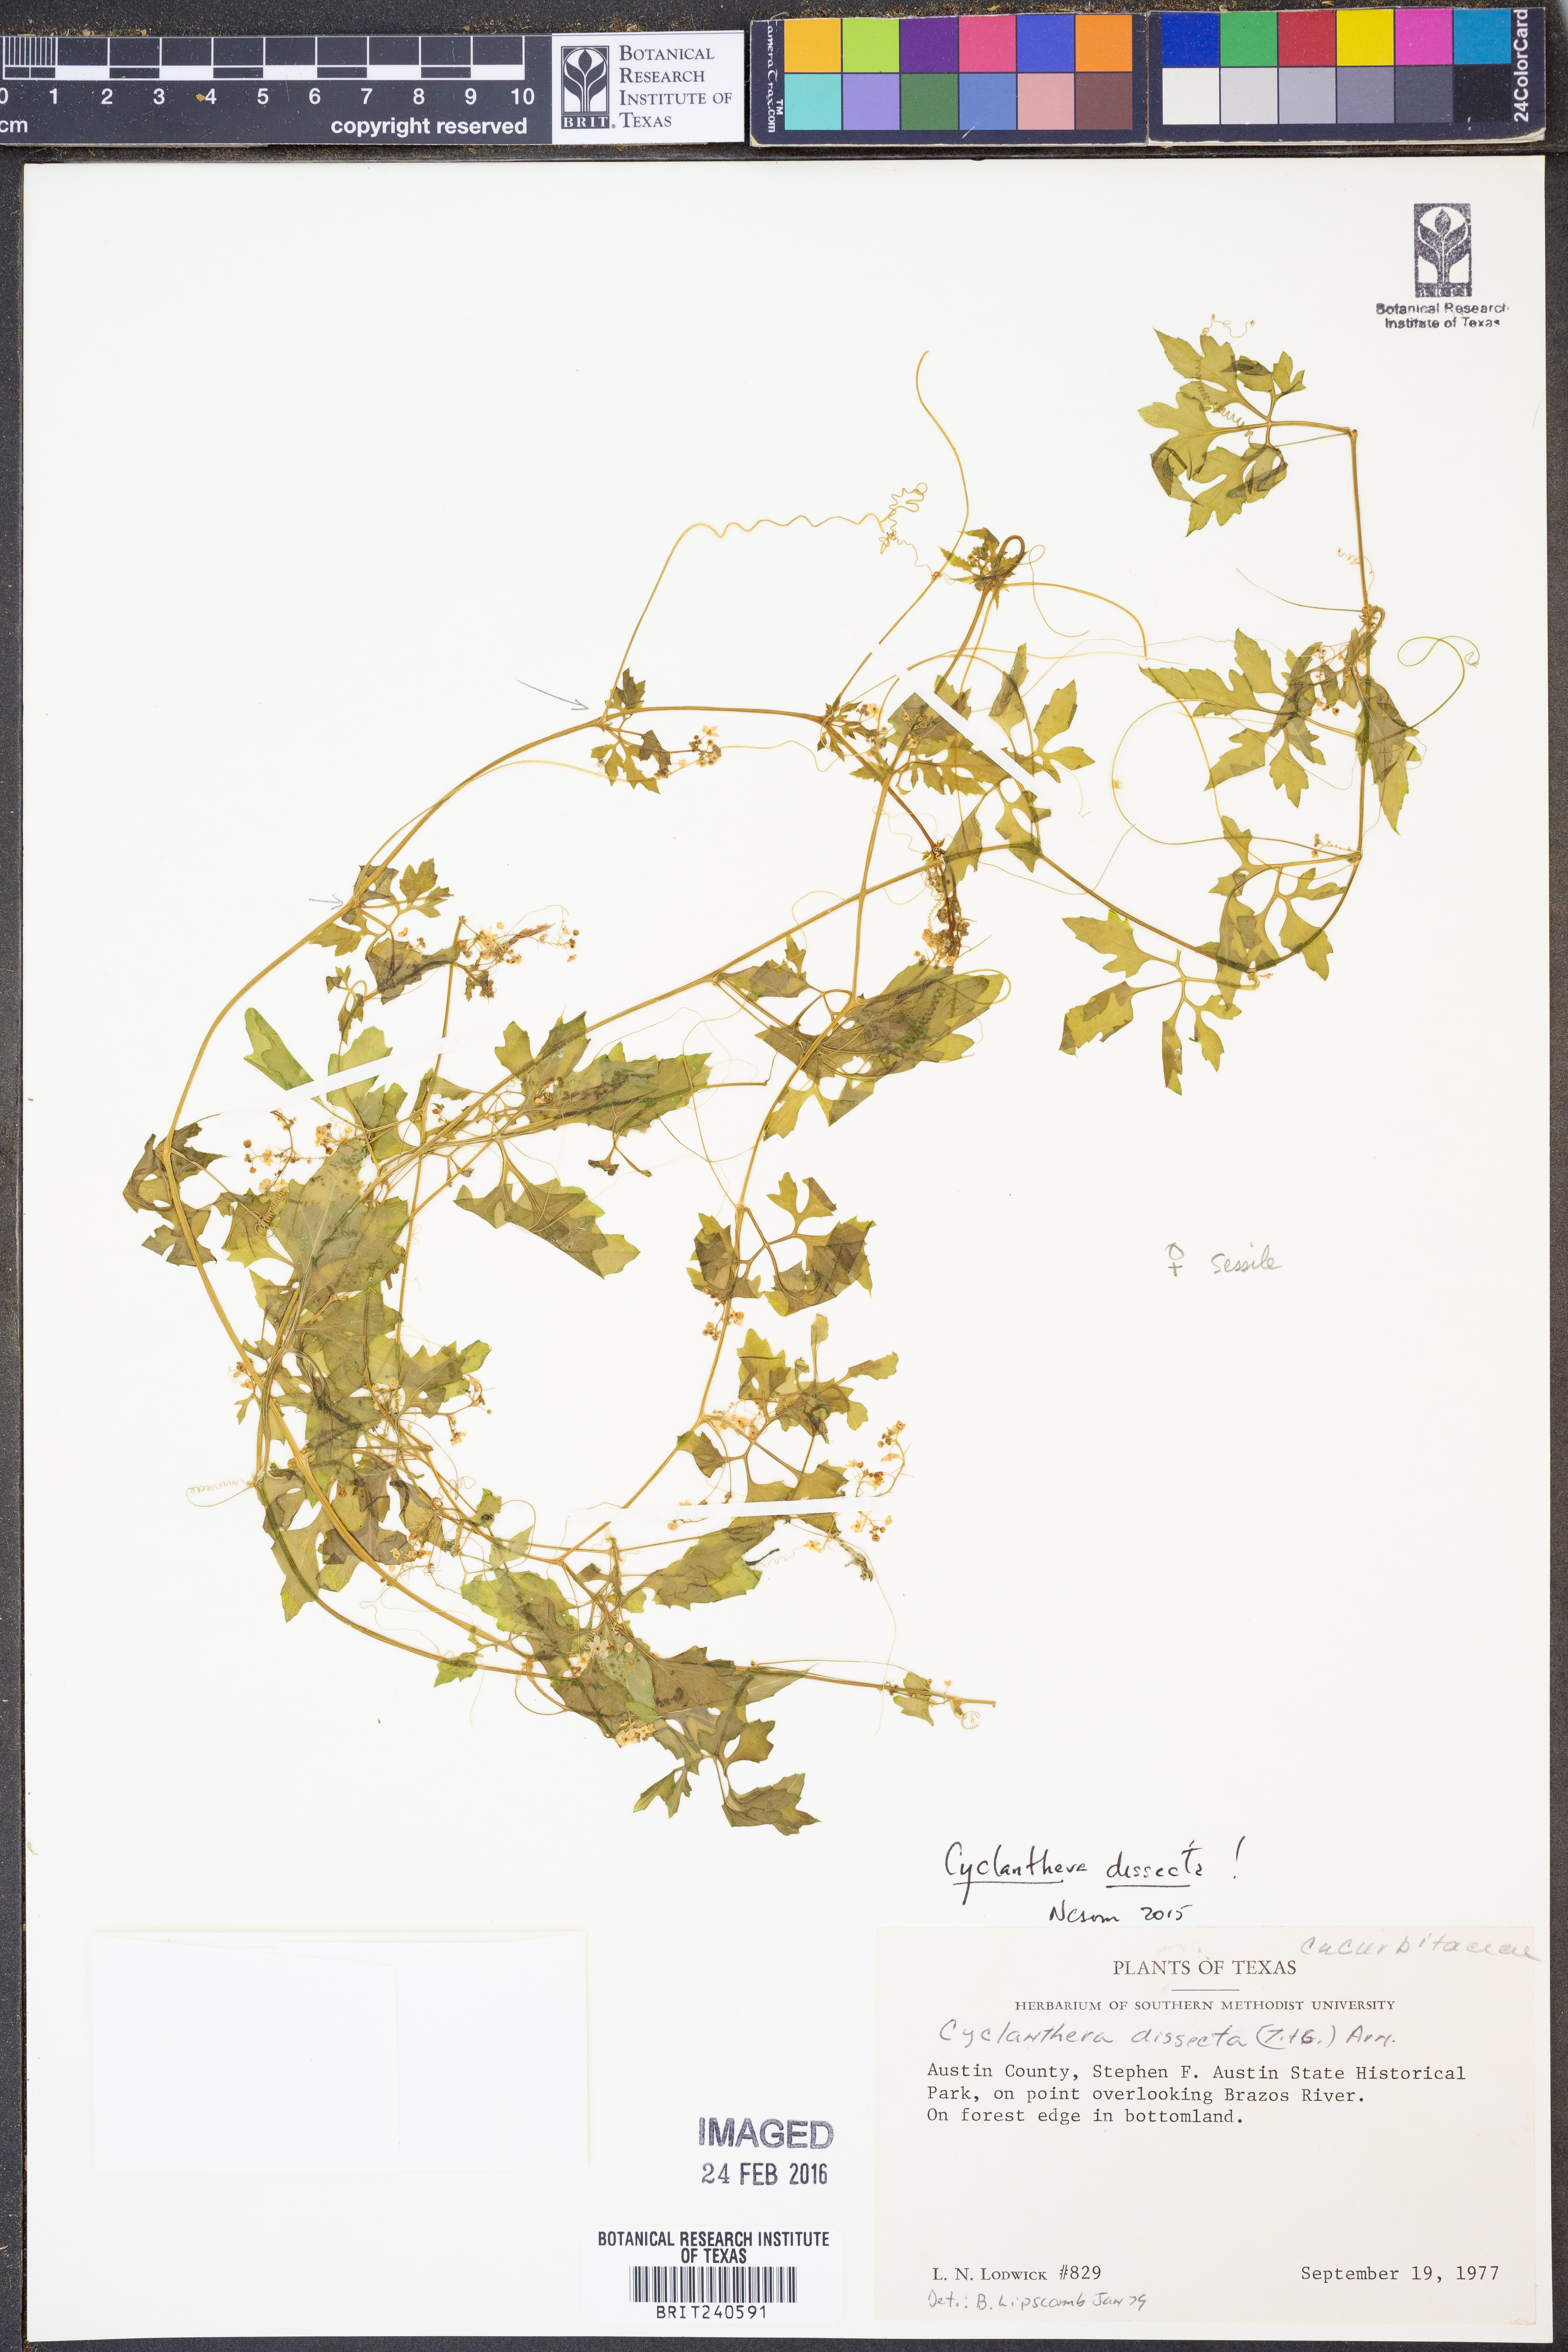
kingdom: Plantae
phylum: Tracheophyta
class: Magnoliopsida
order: Cucurbitales
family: Cucurbitaceae
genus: Cyclanthera
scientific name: Cyclanthera dissecta
